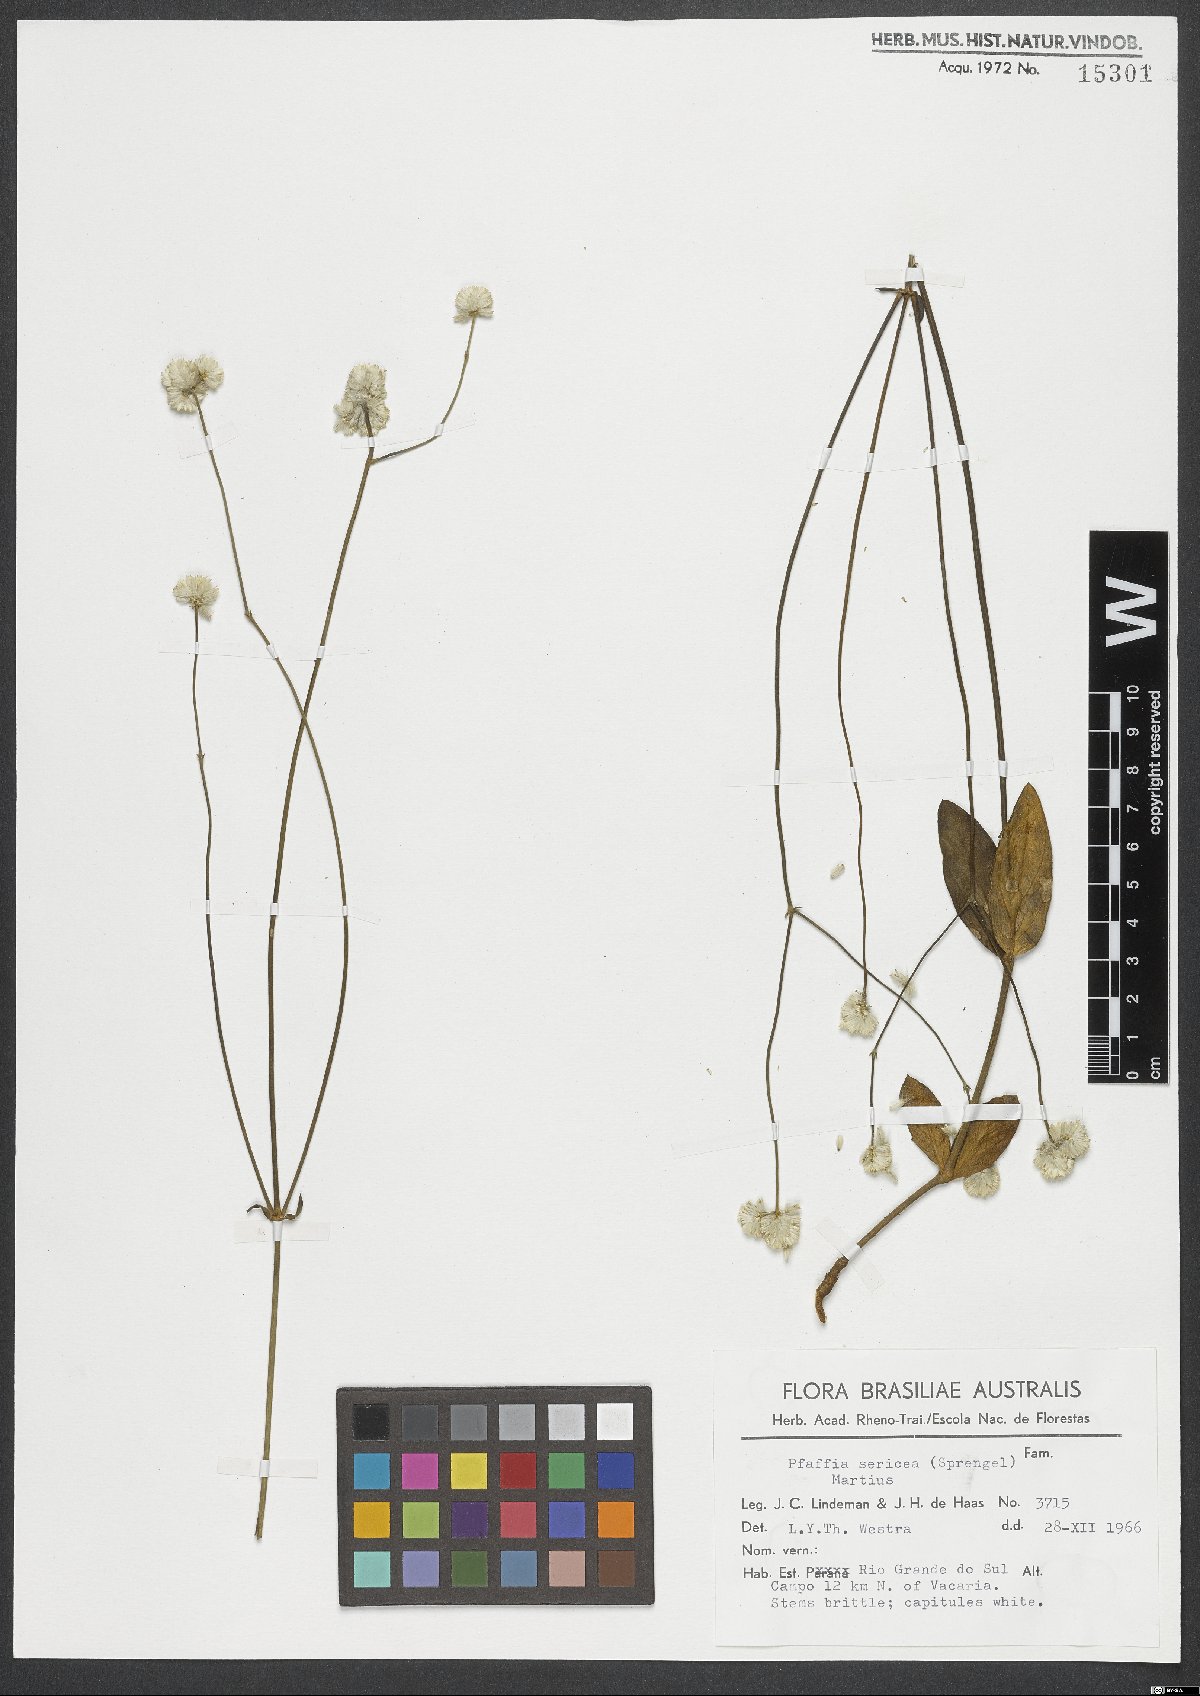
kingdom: Plantae
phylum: Tracheophyta
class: Magnoliopsida
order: Caryophyllales
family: Amaranthaceae
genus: Pfaffia
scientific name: Pfaffia tuberosa
